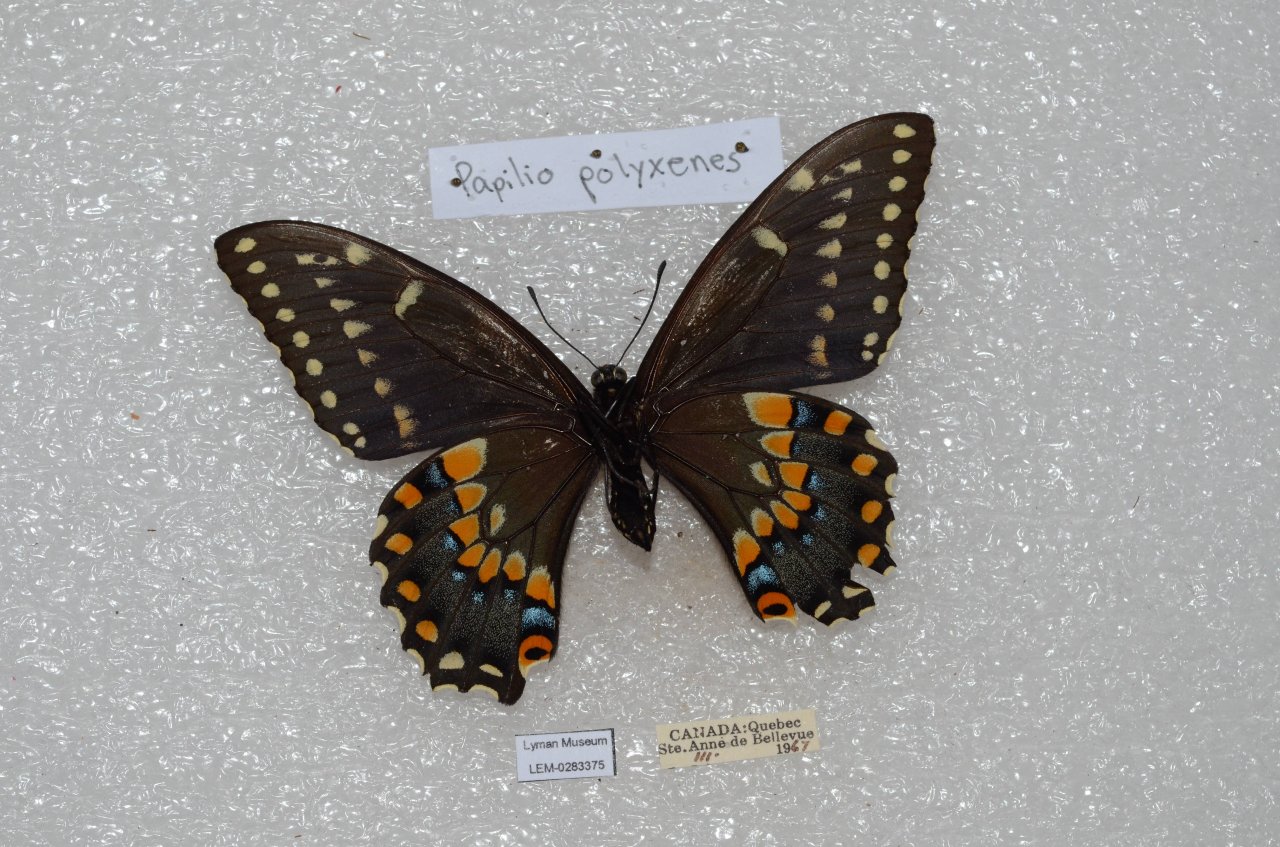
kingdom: Animalia
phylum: Arthropoda
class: Insecta
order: Lepidoptera
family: Papilionidae
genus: Papilio
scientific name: Papilio polyxenes
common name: Black Swallowtail
